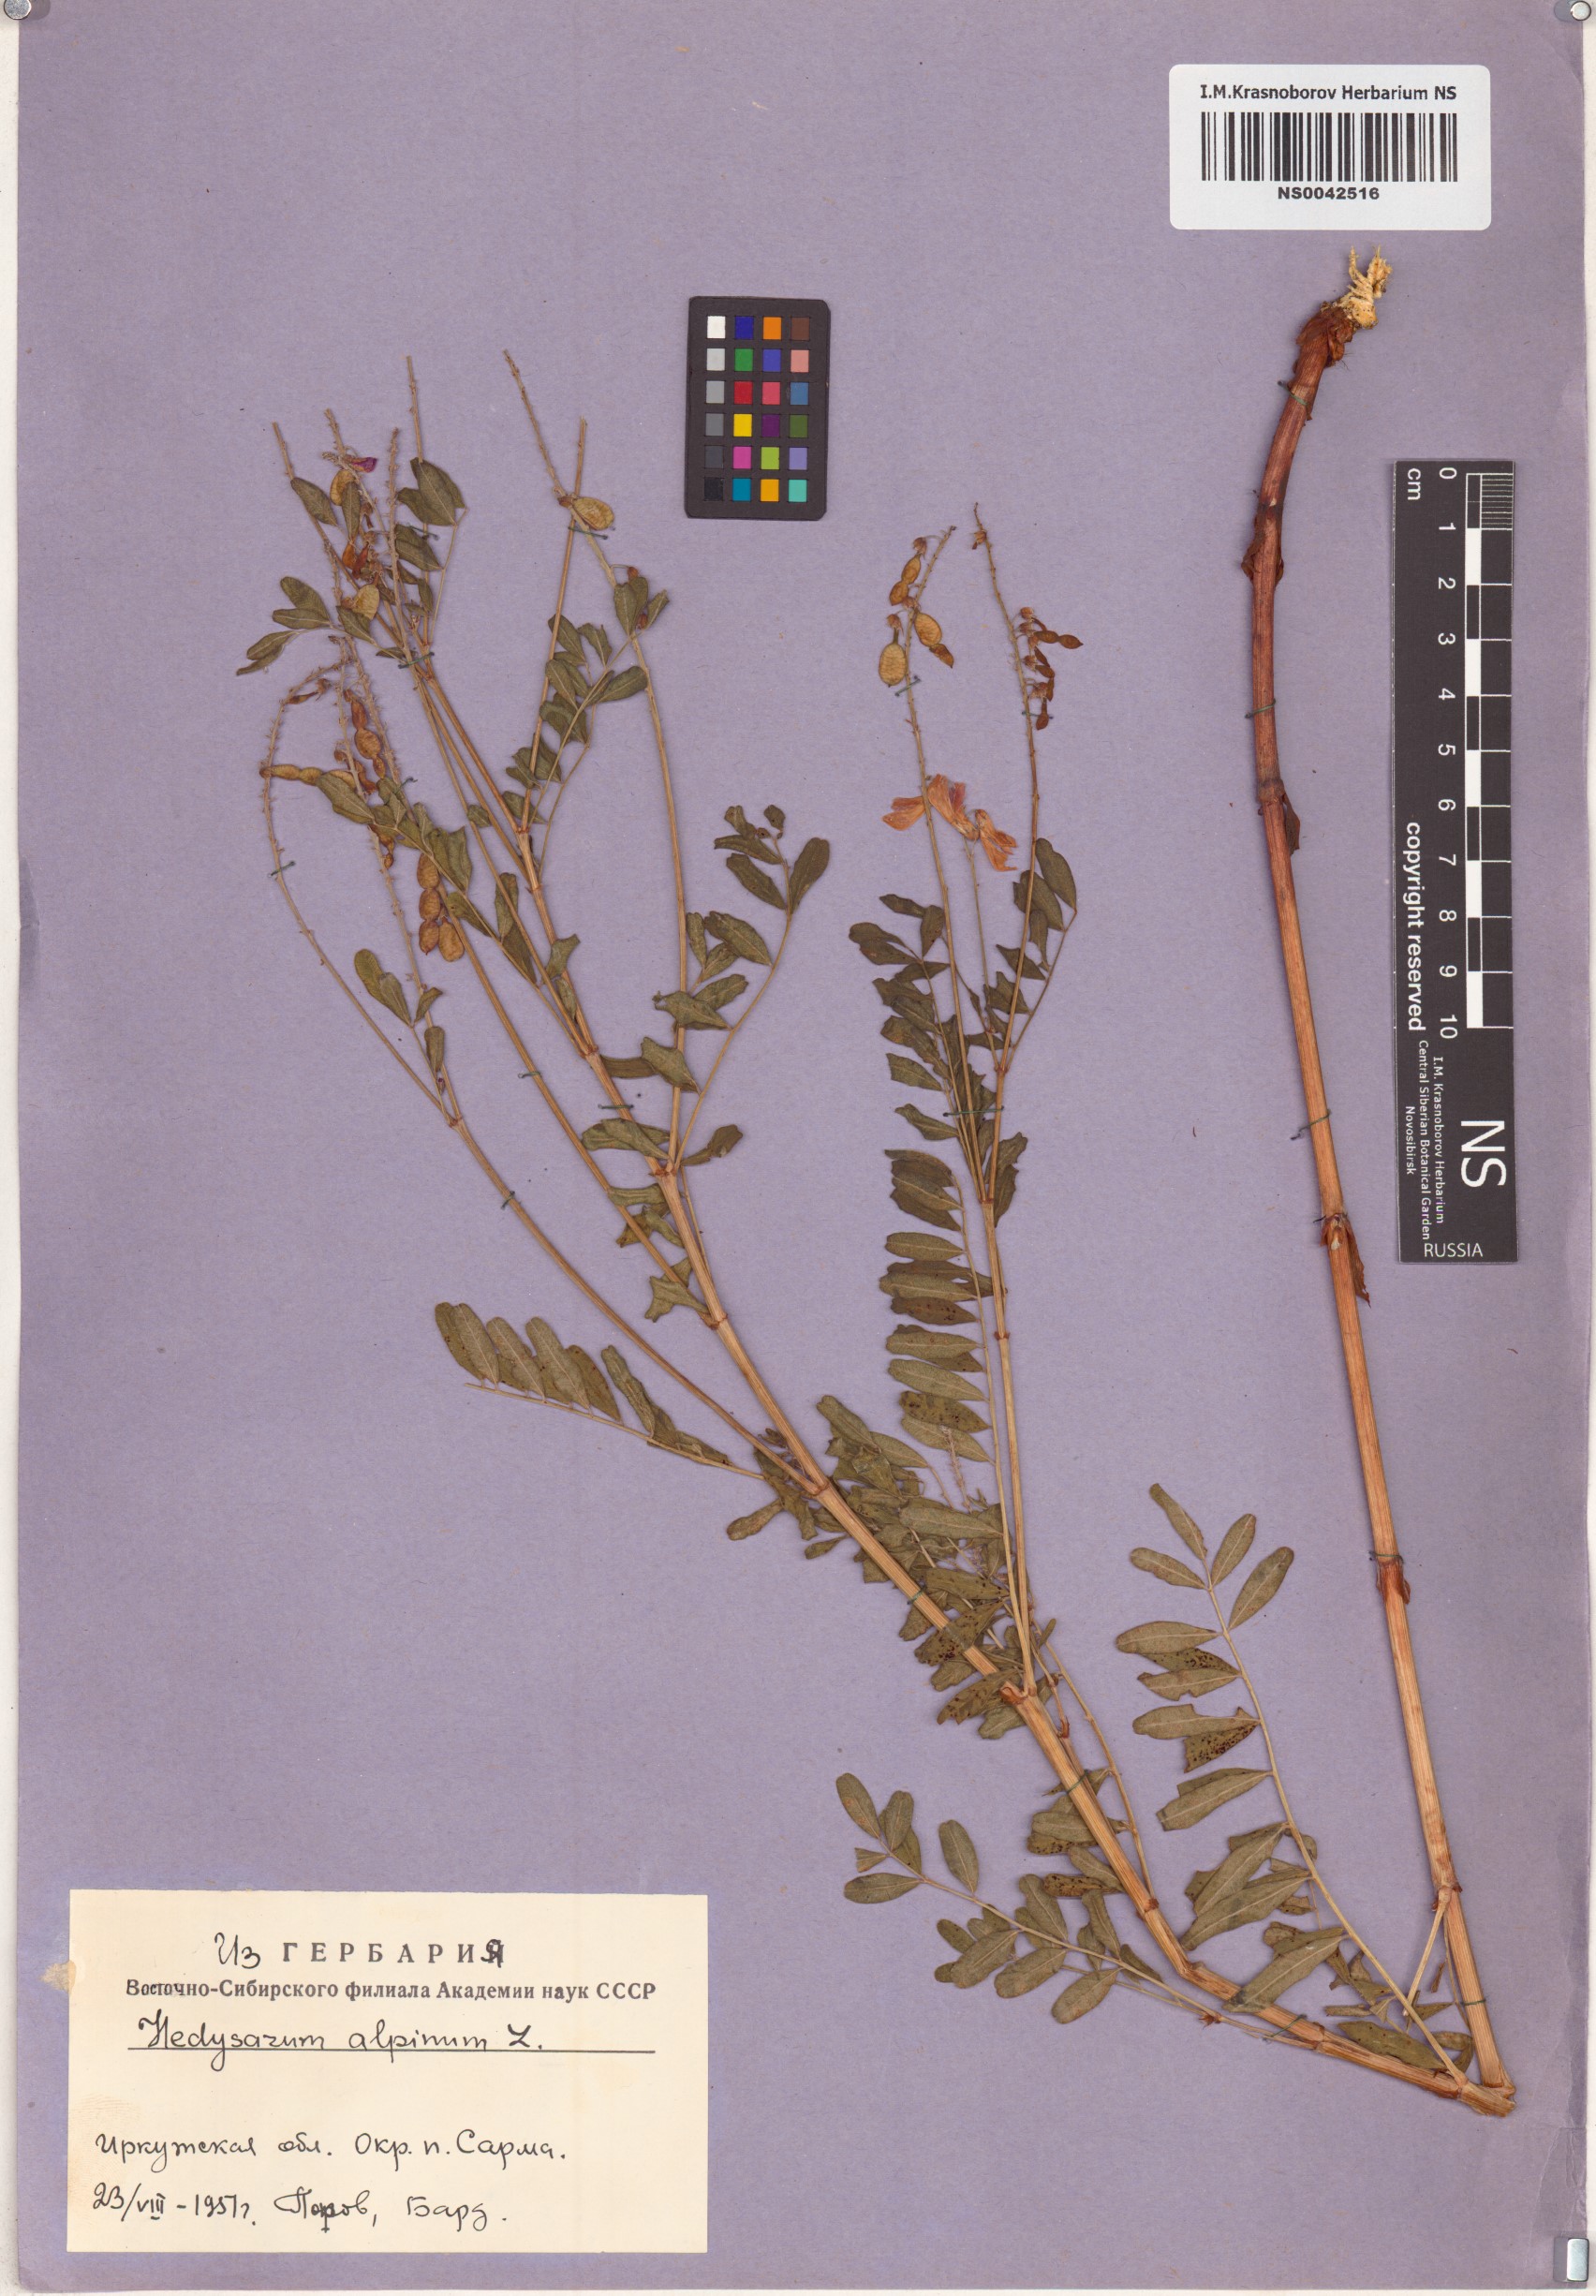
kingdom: Plantae
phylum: Tracheophyta
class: Magnoliopsida
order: Fabales
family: Fabaceae
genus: Hedysarum
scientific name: Hedysarum alpinum
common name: Alpine sweet-vetch
